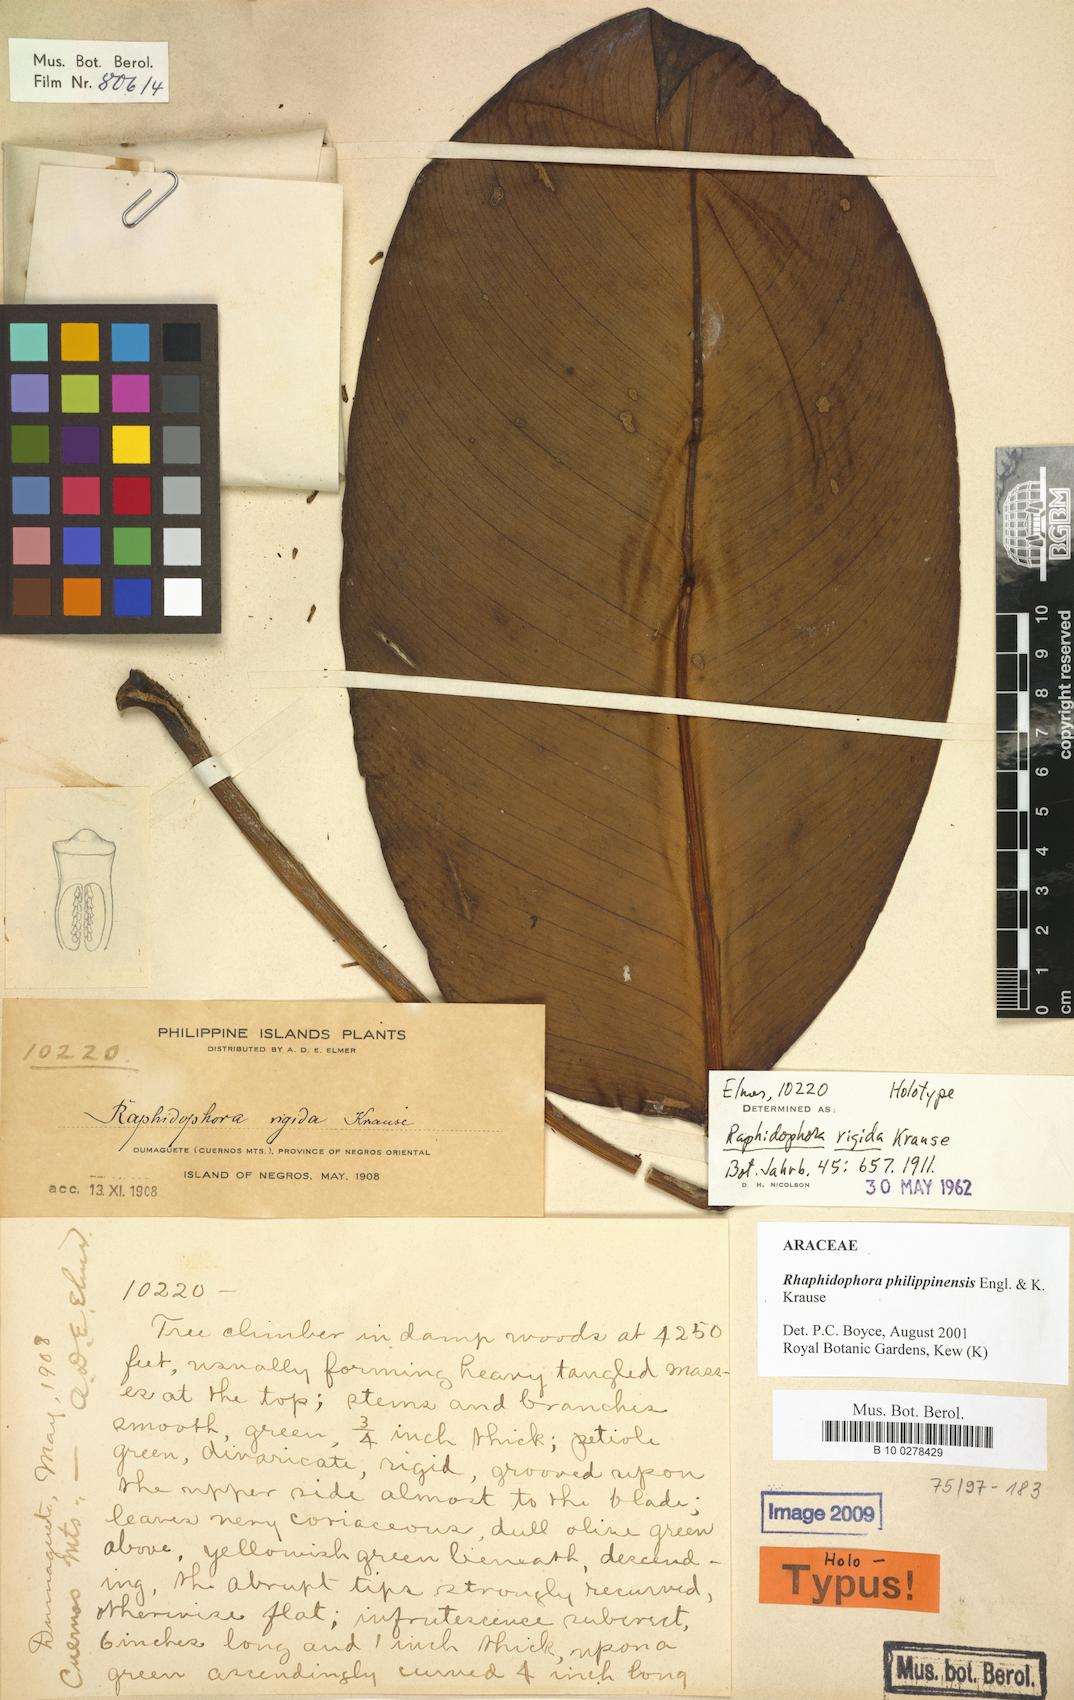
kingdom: Plantae
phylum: Tracheophyta
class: Liliopsida
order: Alismatales
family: Araceae
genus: Rhaphidophora
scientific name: Rhaphidophora philippinensis
